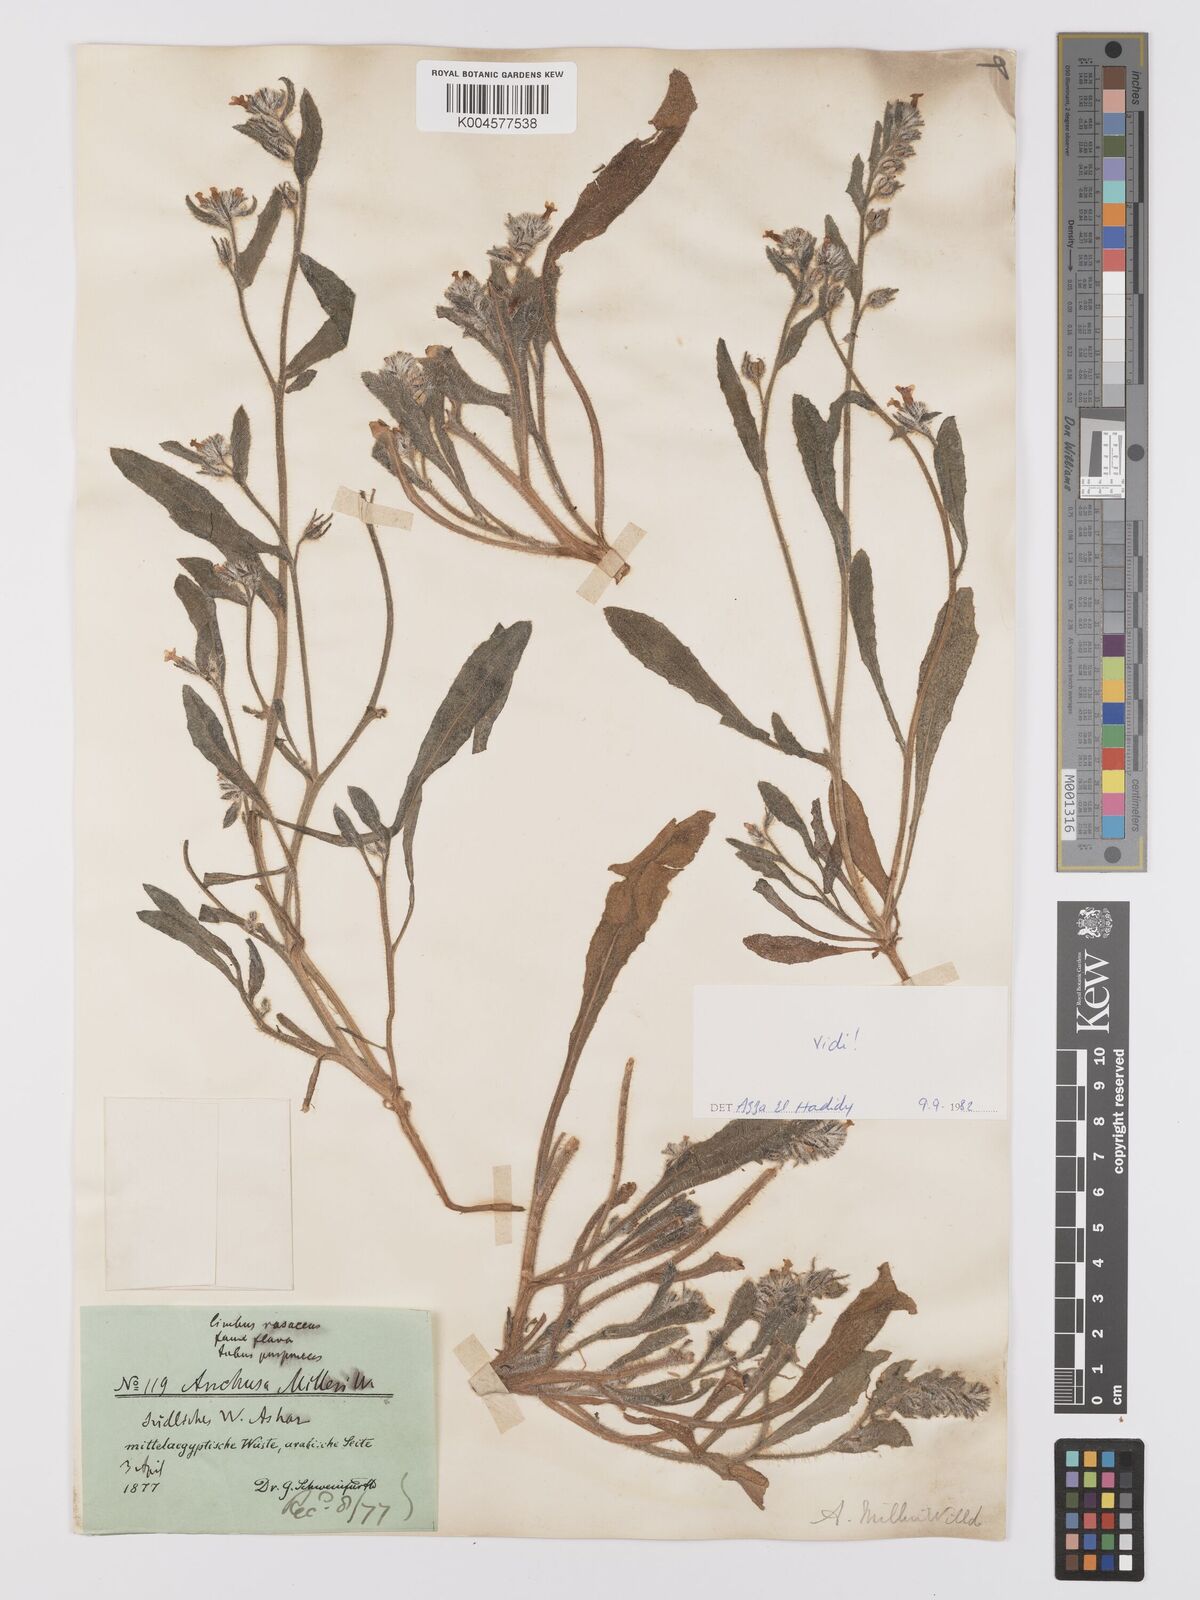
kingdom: Plantae
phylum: Tracheophyta
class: Magnoliopsida
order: Boraginales
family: Boraginaceae
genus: Anchusa
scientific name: Anchusa milleri
